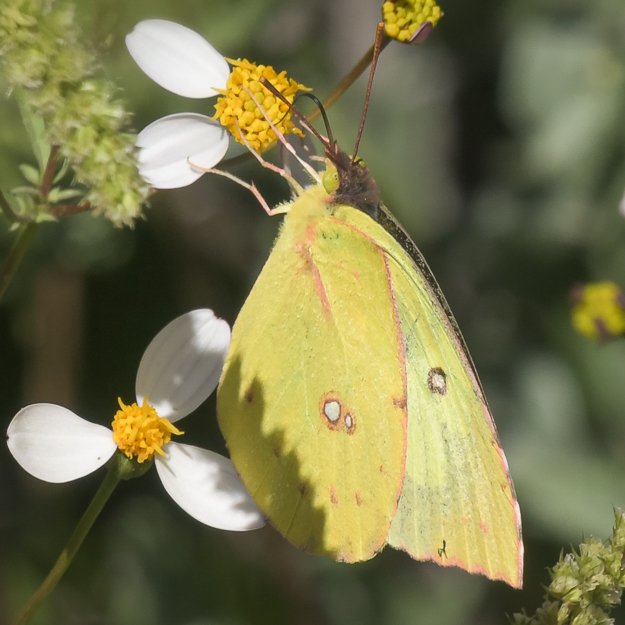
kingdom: Animalia
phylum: Arthropoda
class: Insecta
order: Lepidoptera
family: Pieridae
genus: Zerene
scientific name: Zerene cesonia
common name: Southern Dogface
